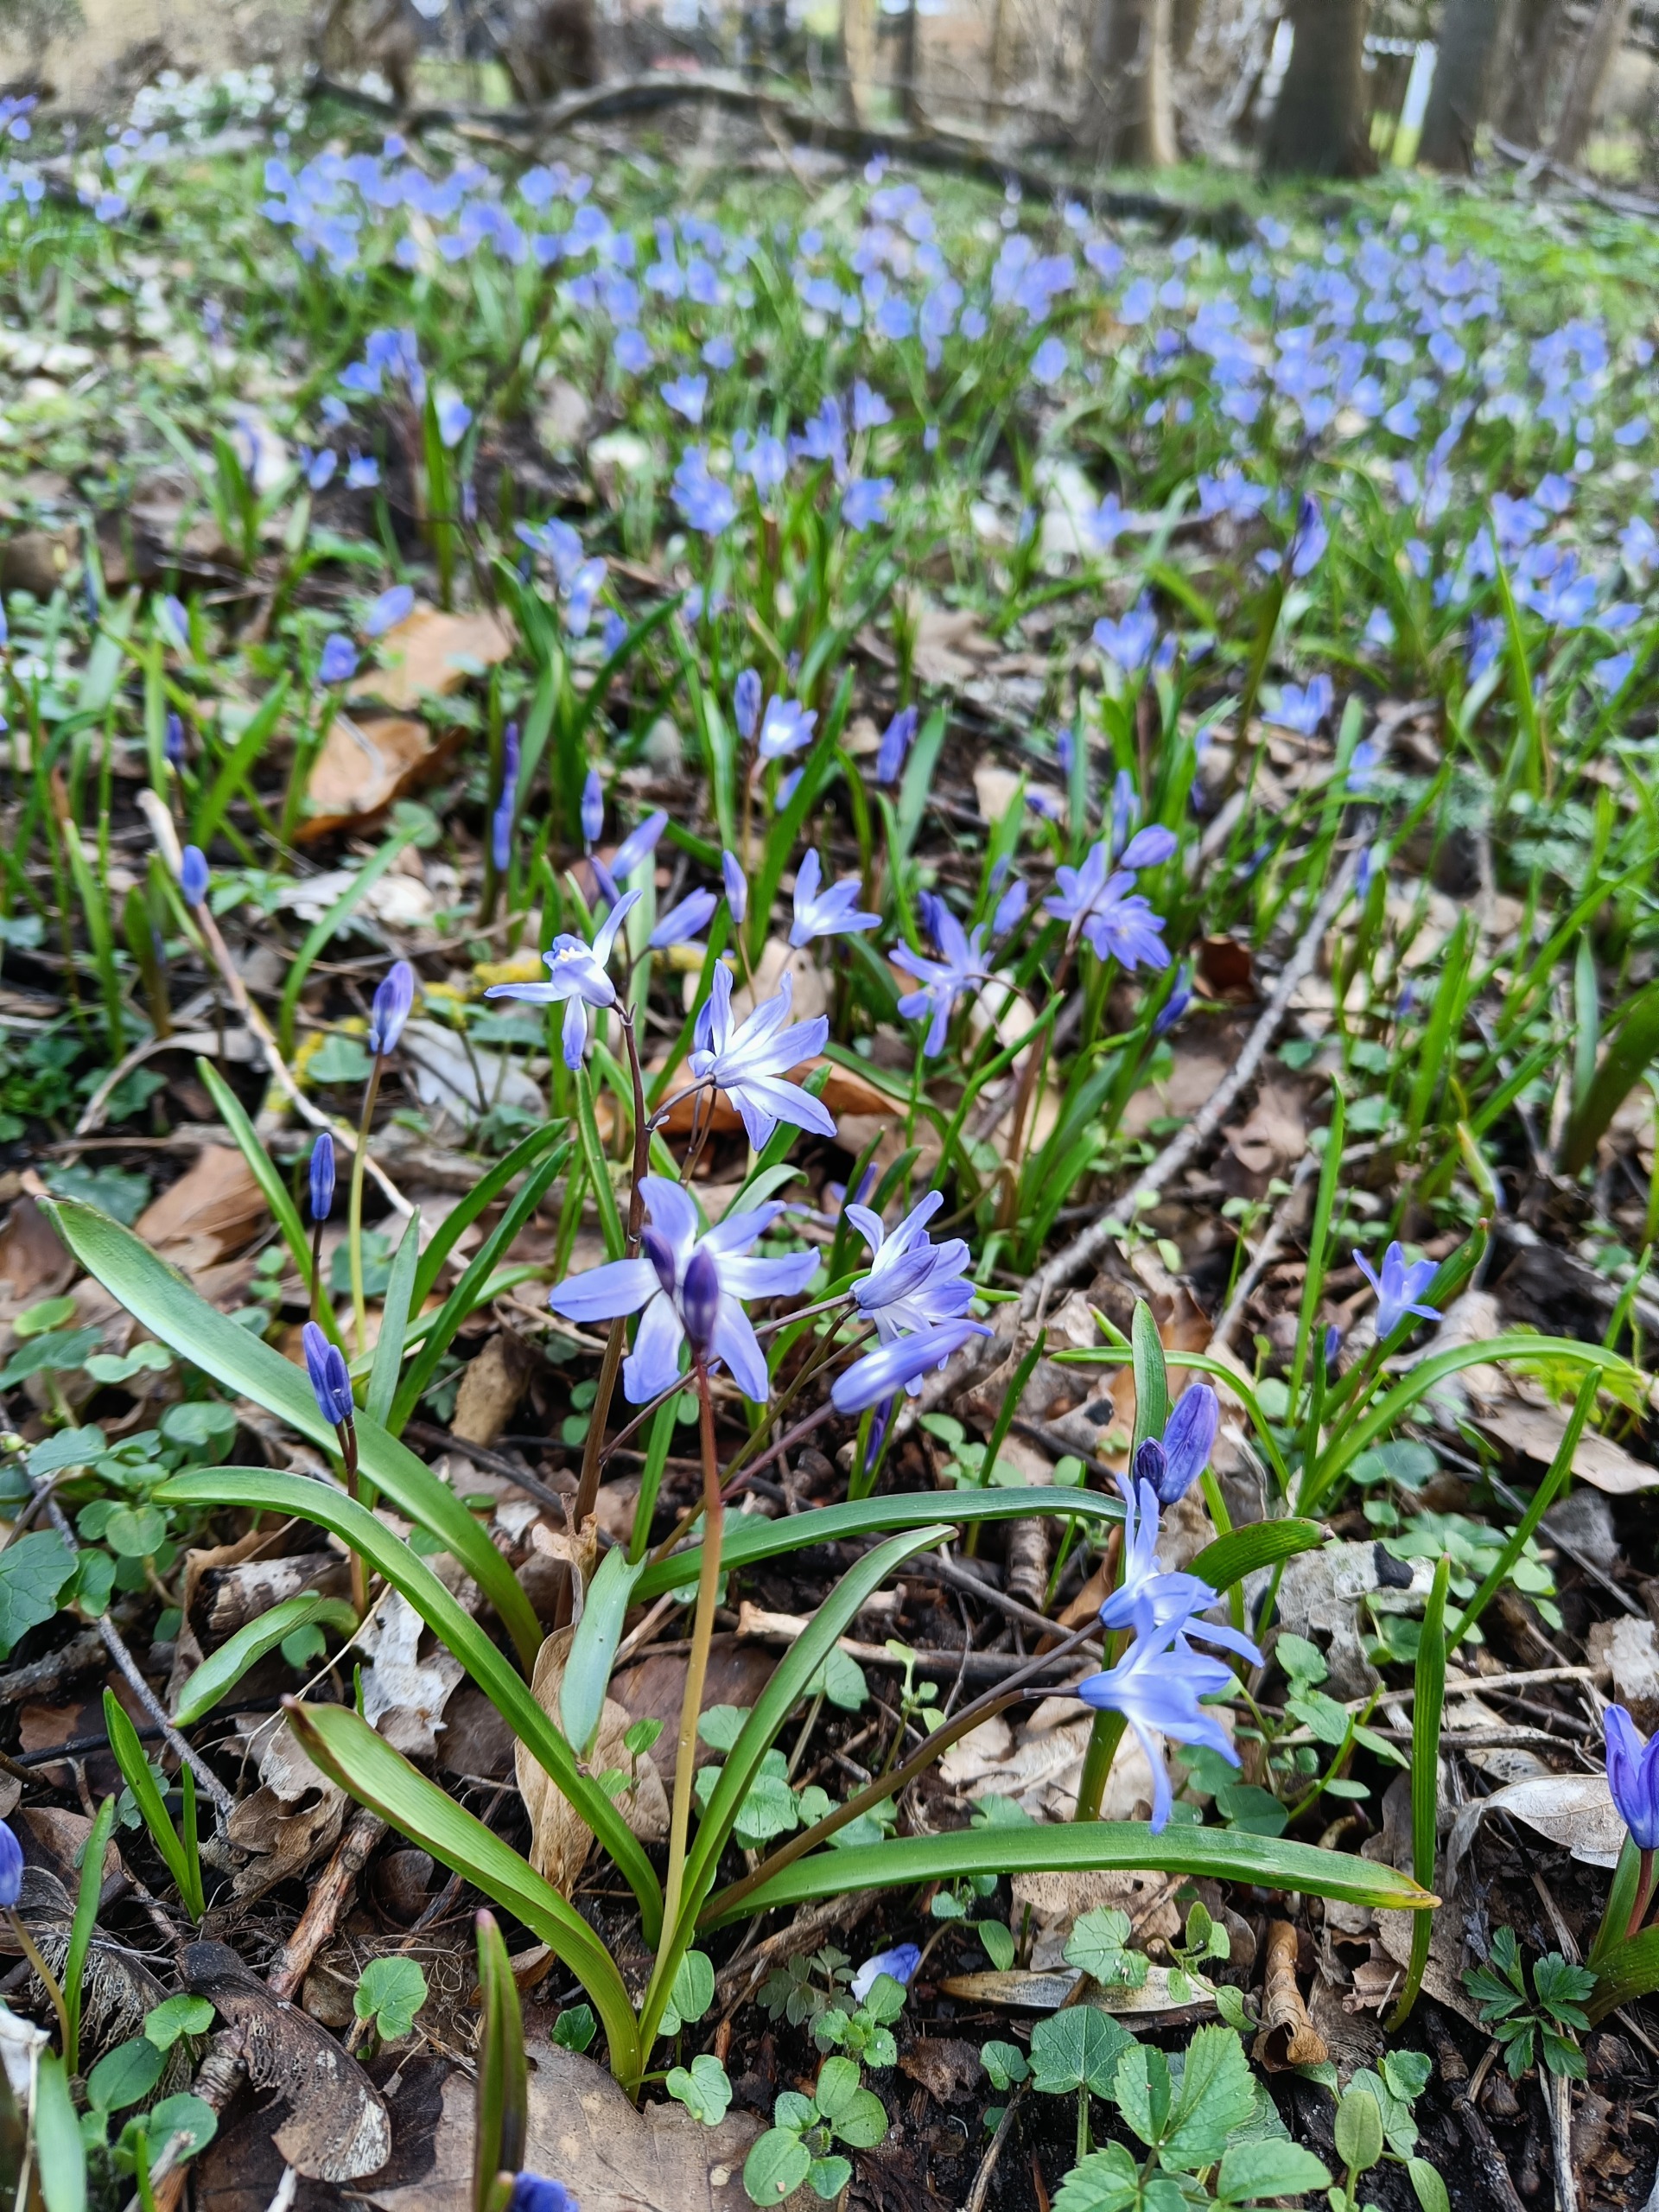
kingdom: Plantae
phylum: Tracheophyta
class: Liliopsida
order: Asparagales
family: Asparagaceae
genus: Scilla
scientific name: Scilla forbesii
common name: Almindelig snepryd
